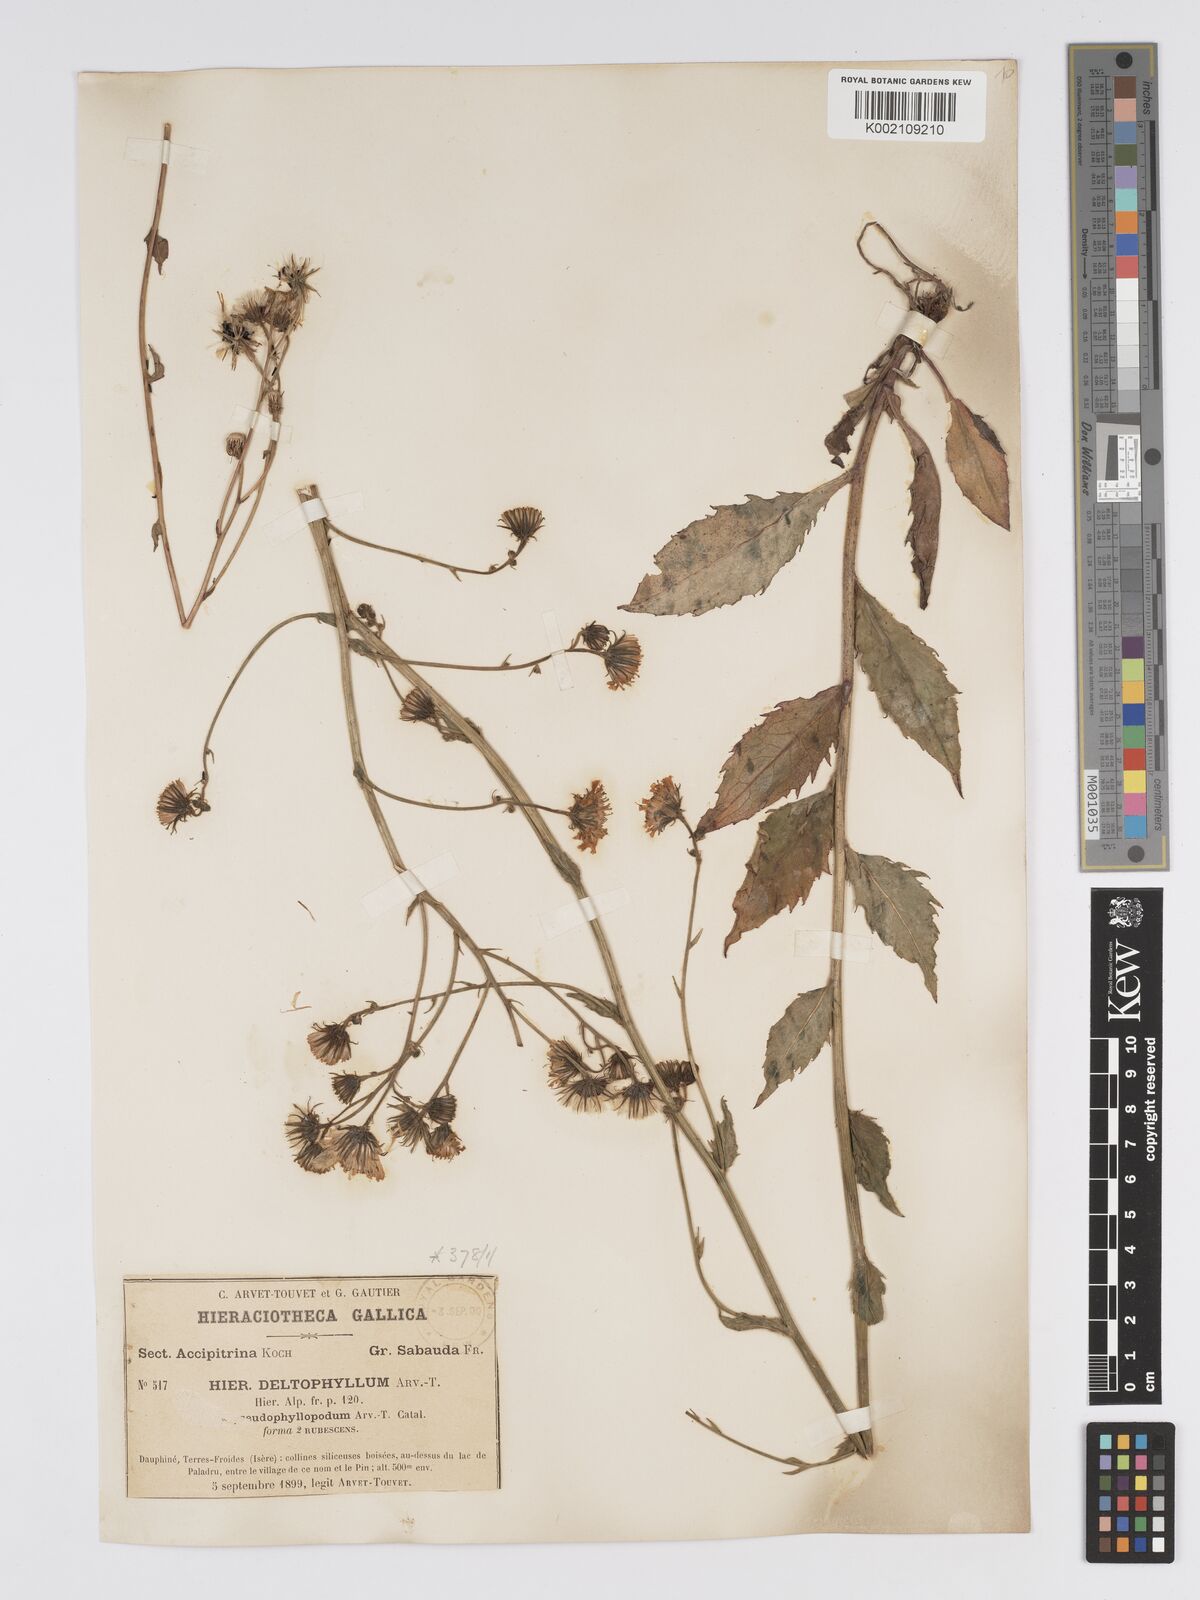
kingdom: Plantae
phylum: Tracheophyta
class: Magnoliopsida
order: Asterales
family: Asteraceae
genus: Hieracium
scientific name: Hieracium flagelliferum
